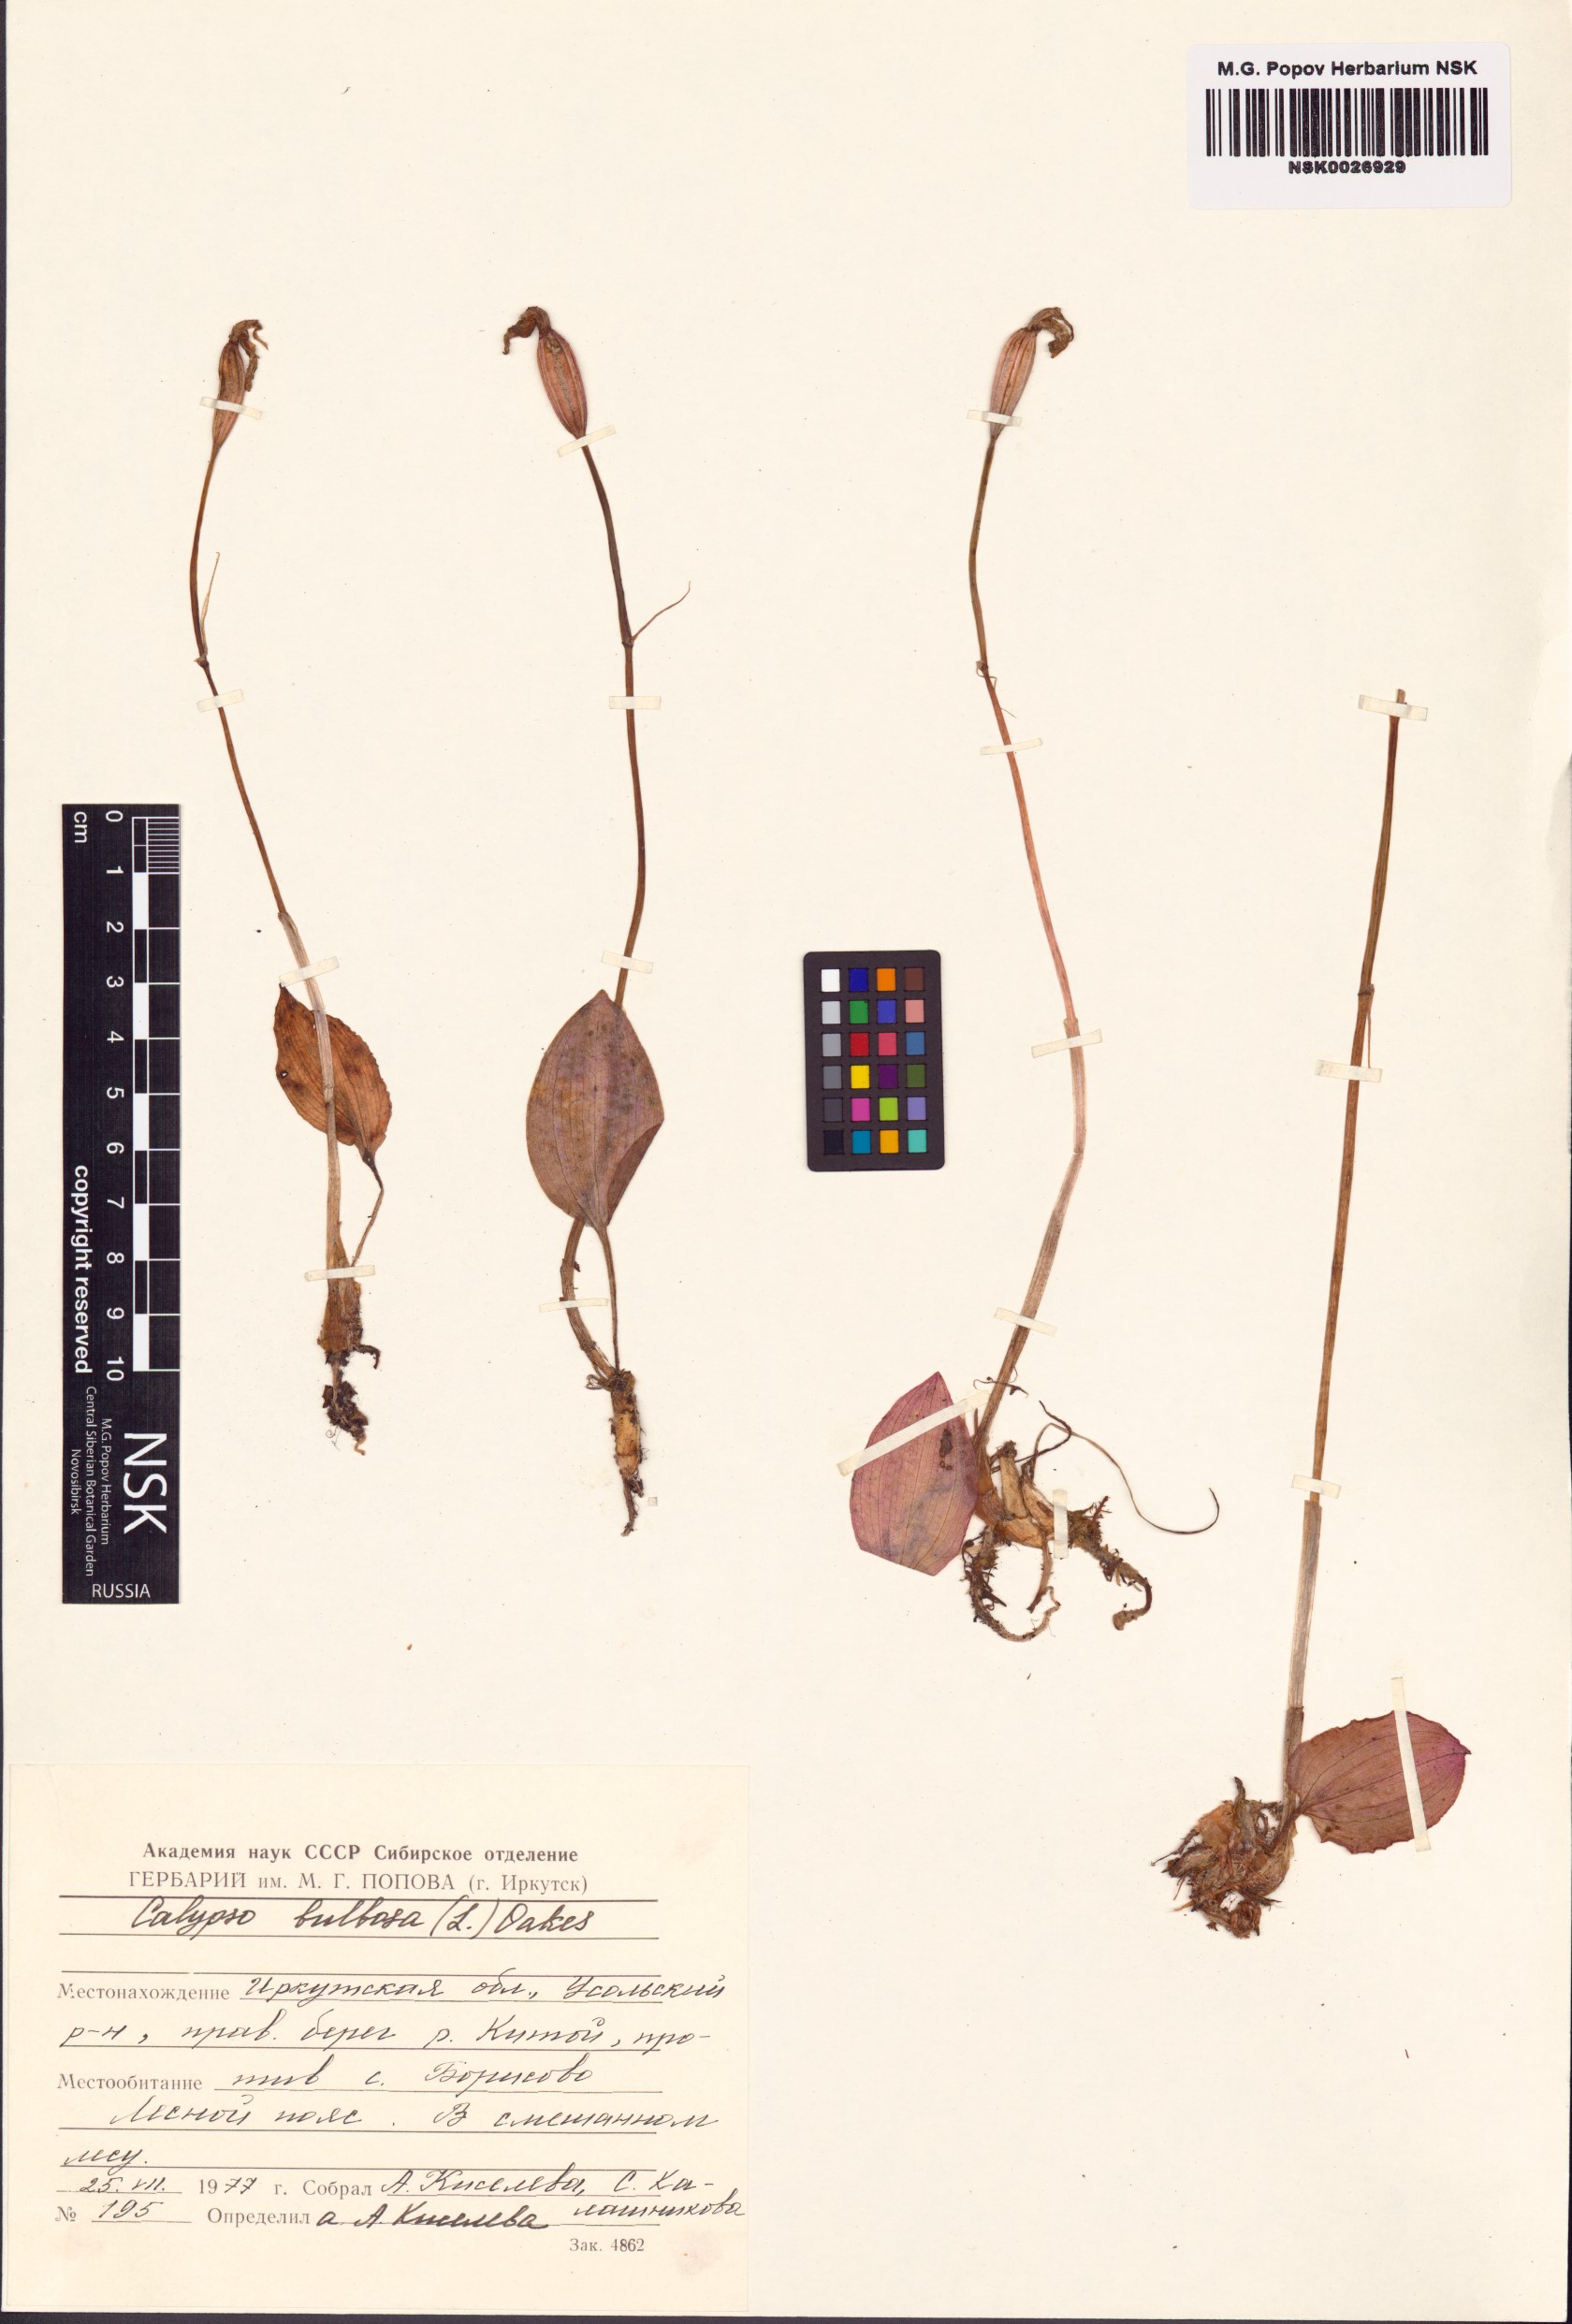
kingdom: Plantae
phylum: Tracheophyta
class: Liliopsida
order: Asparagales
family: Orchidaceae
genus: Calypso
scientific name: Calypso bulbosa
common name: Calypso
